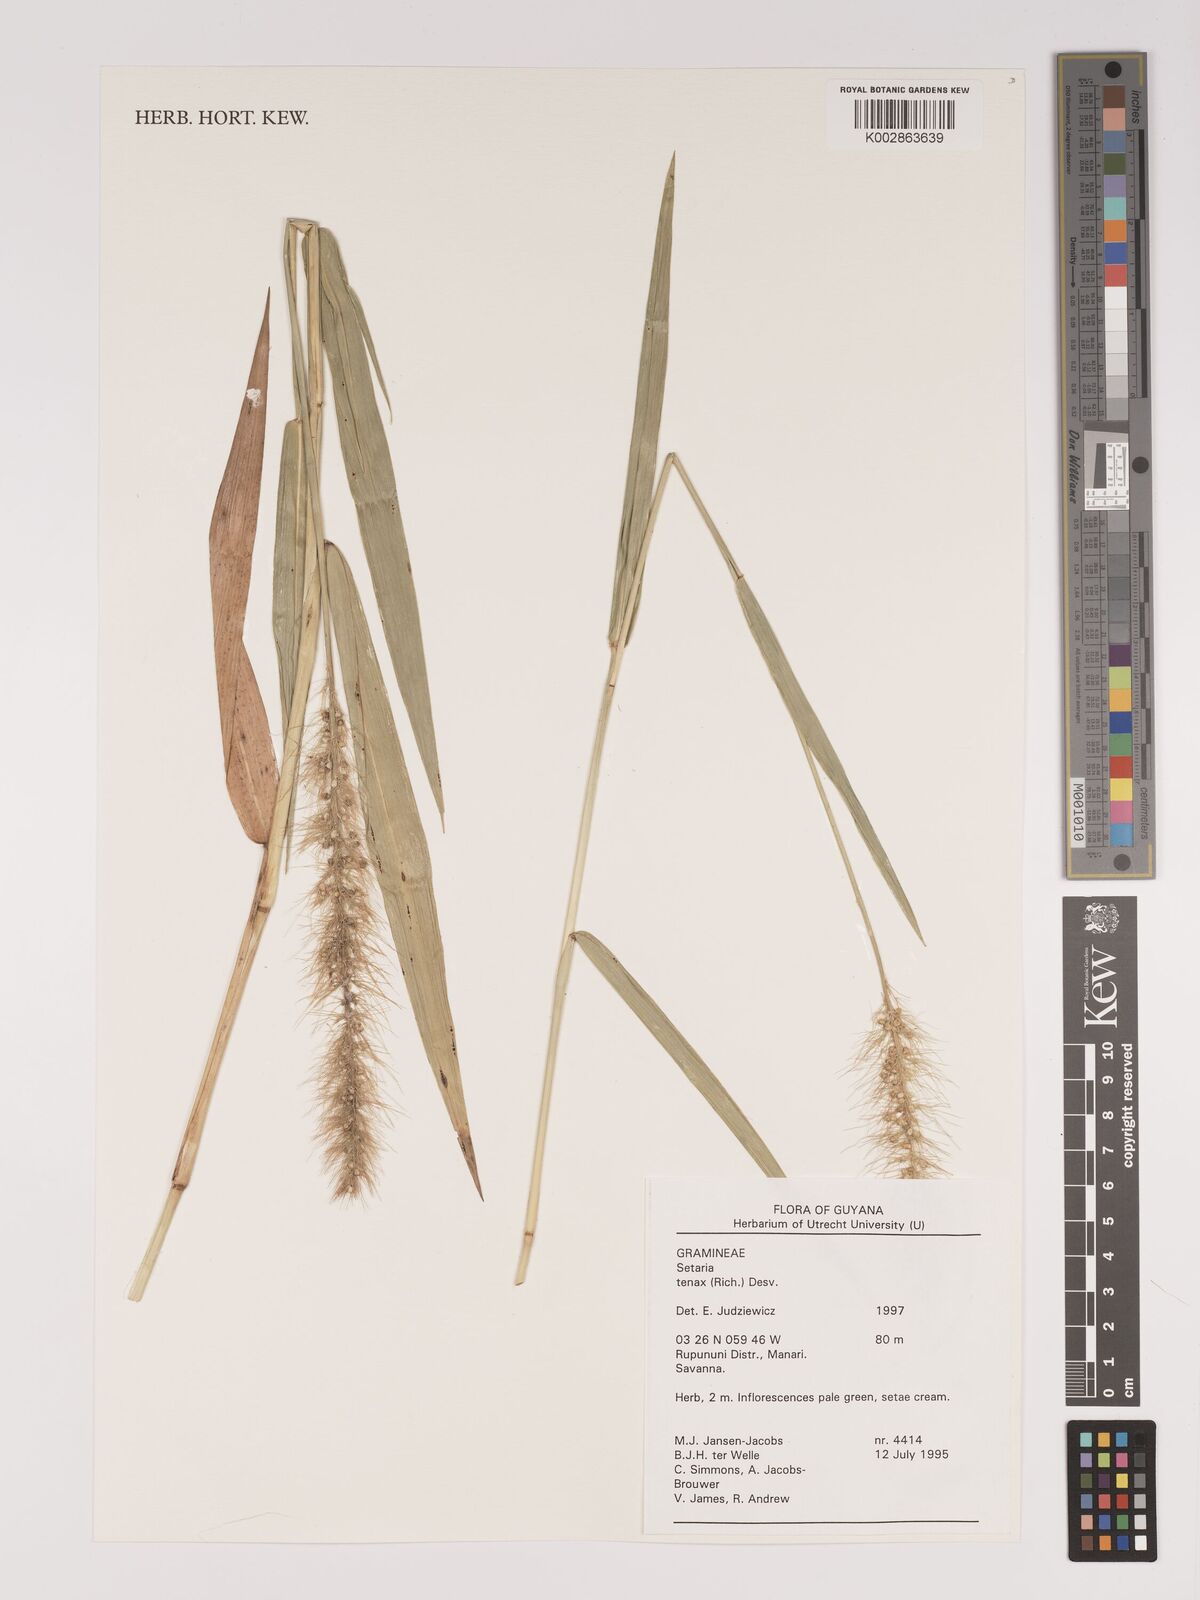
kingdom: Plantae
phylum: Tracheophyta
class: Liliopsida
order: Poales
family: Poaceae
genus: Setaria
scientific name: Setaria tenax
